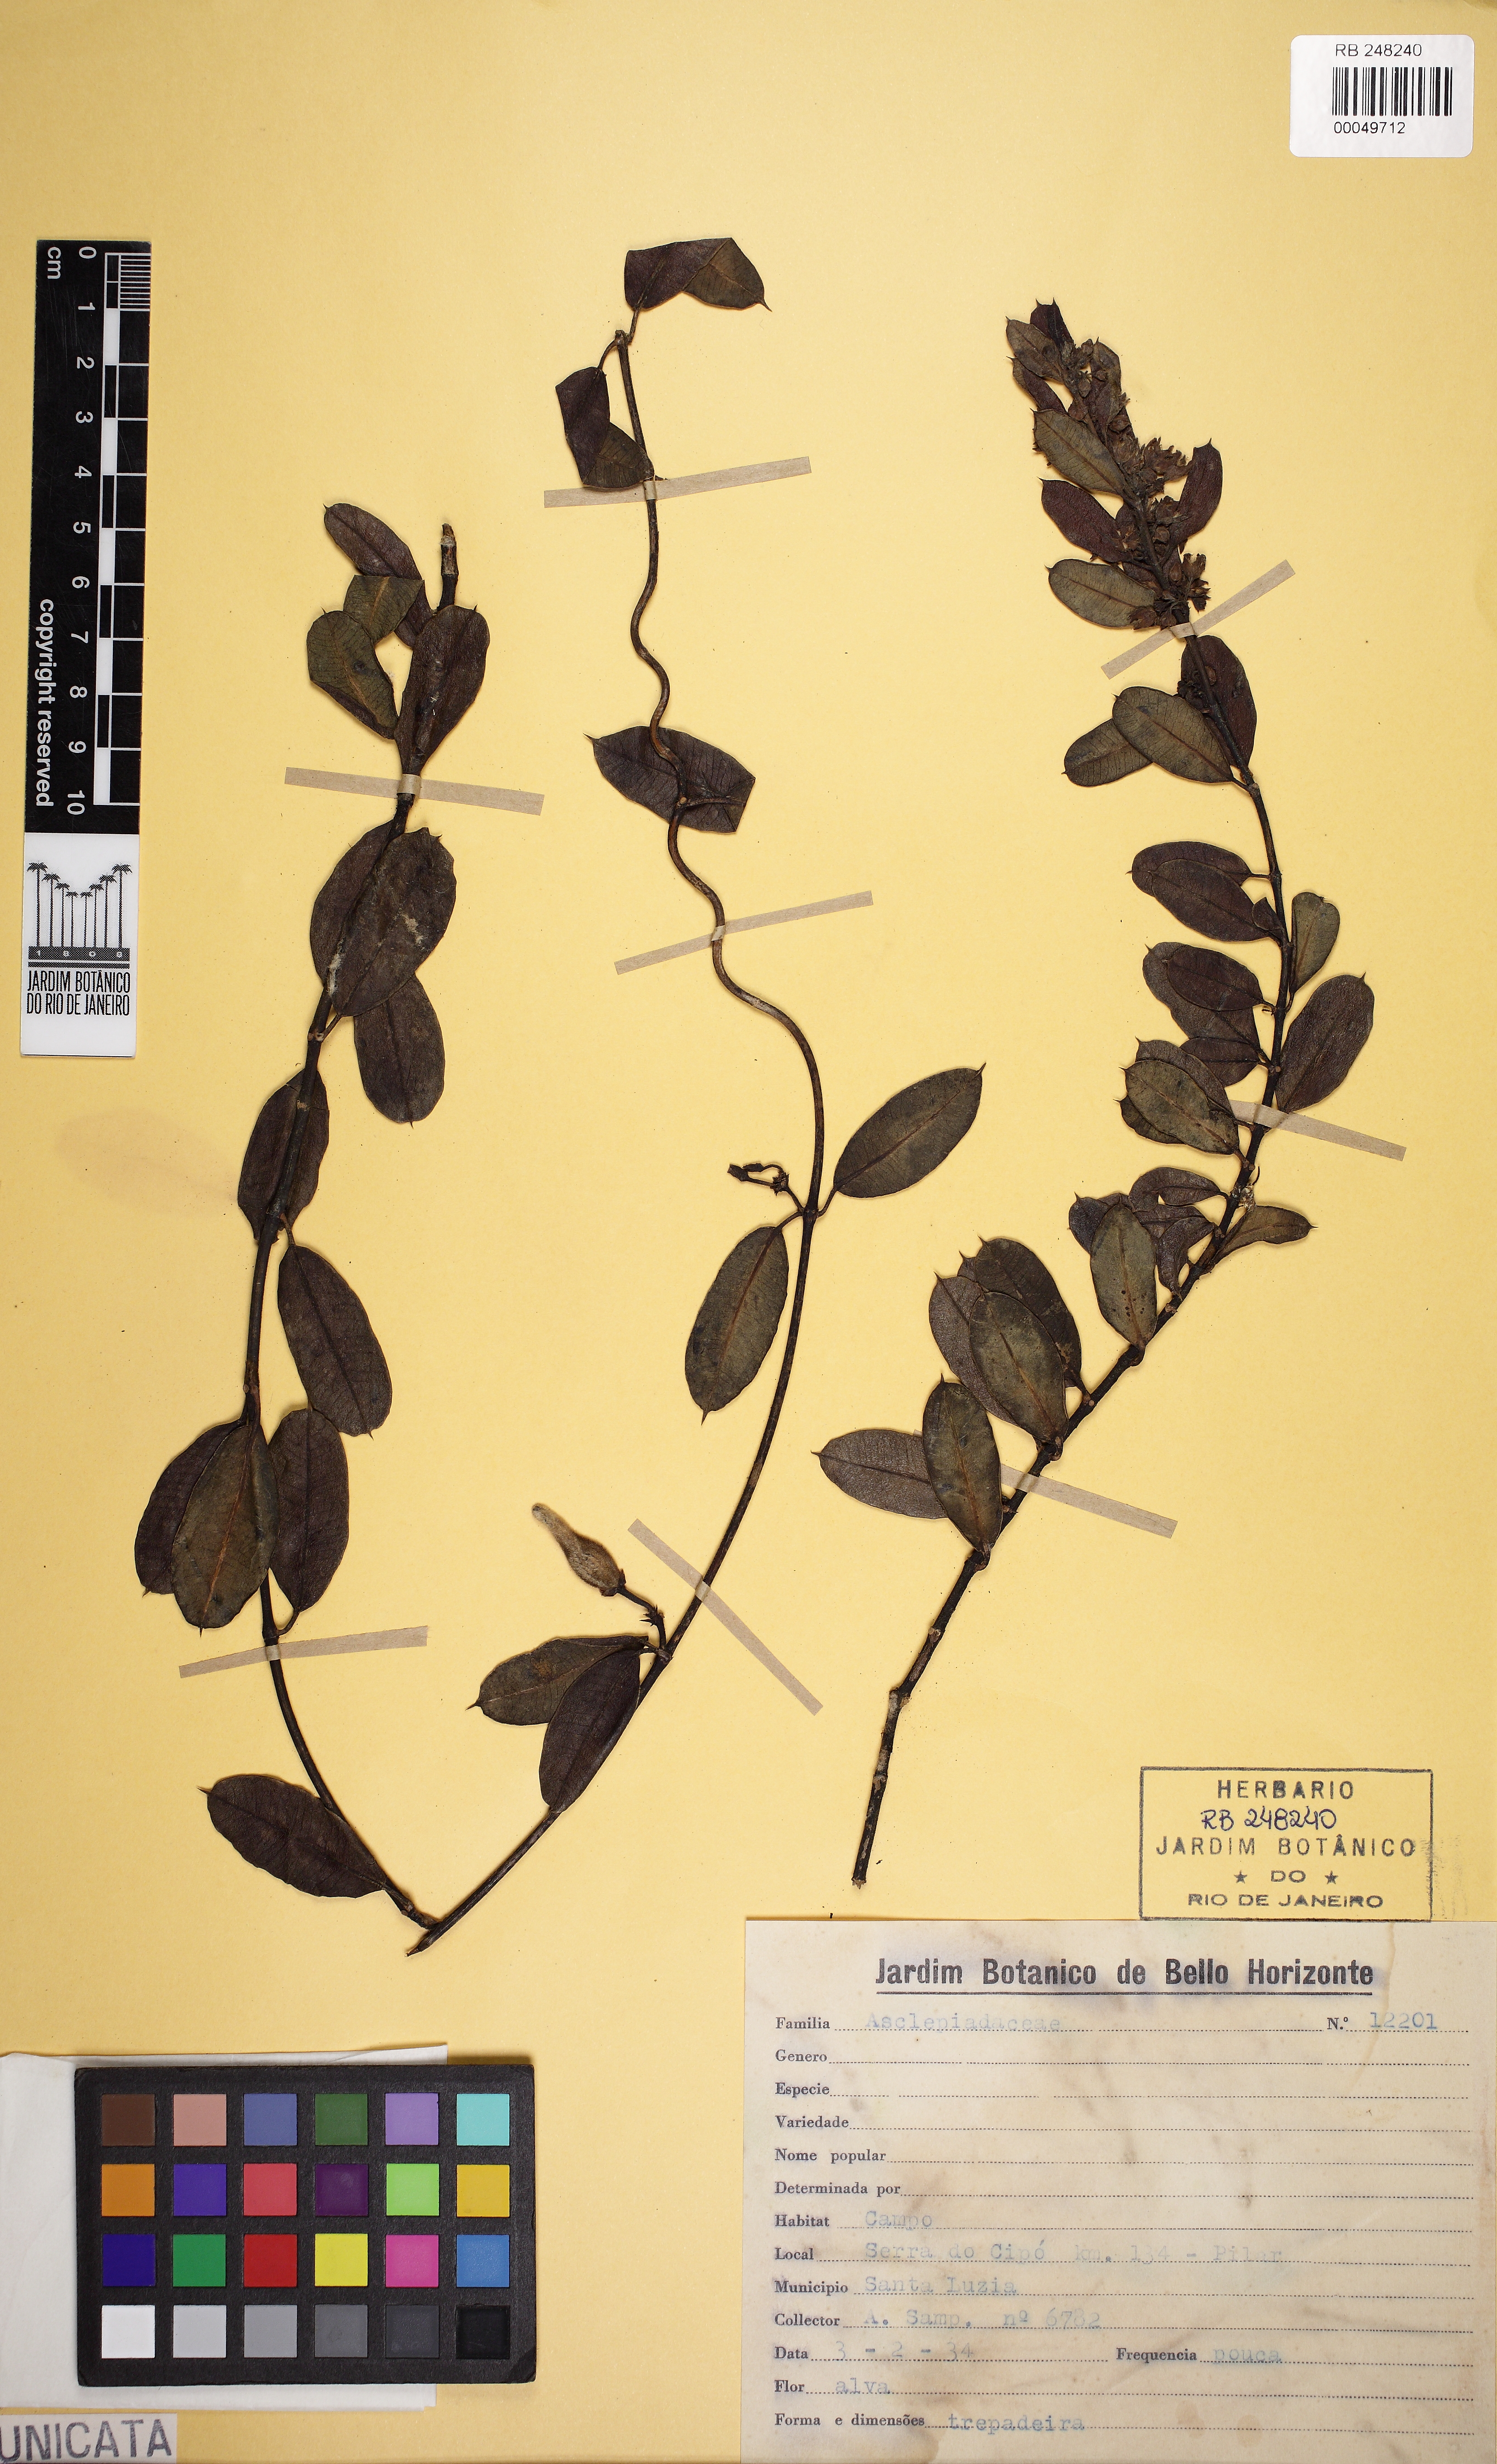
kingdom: Plantae
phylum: Tracheophyta
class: Magnoliopsida
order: Gentianales
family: Apocynaceae
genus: Ditassa
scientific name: Ditassa eximia
